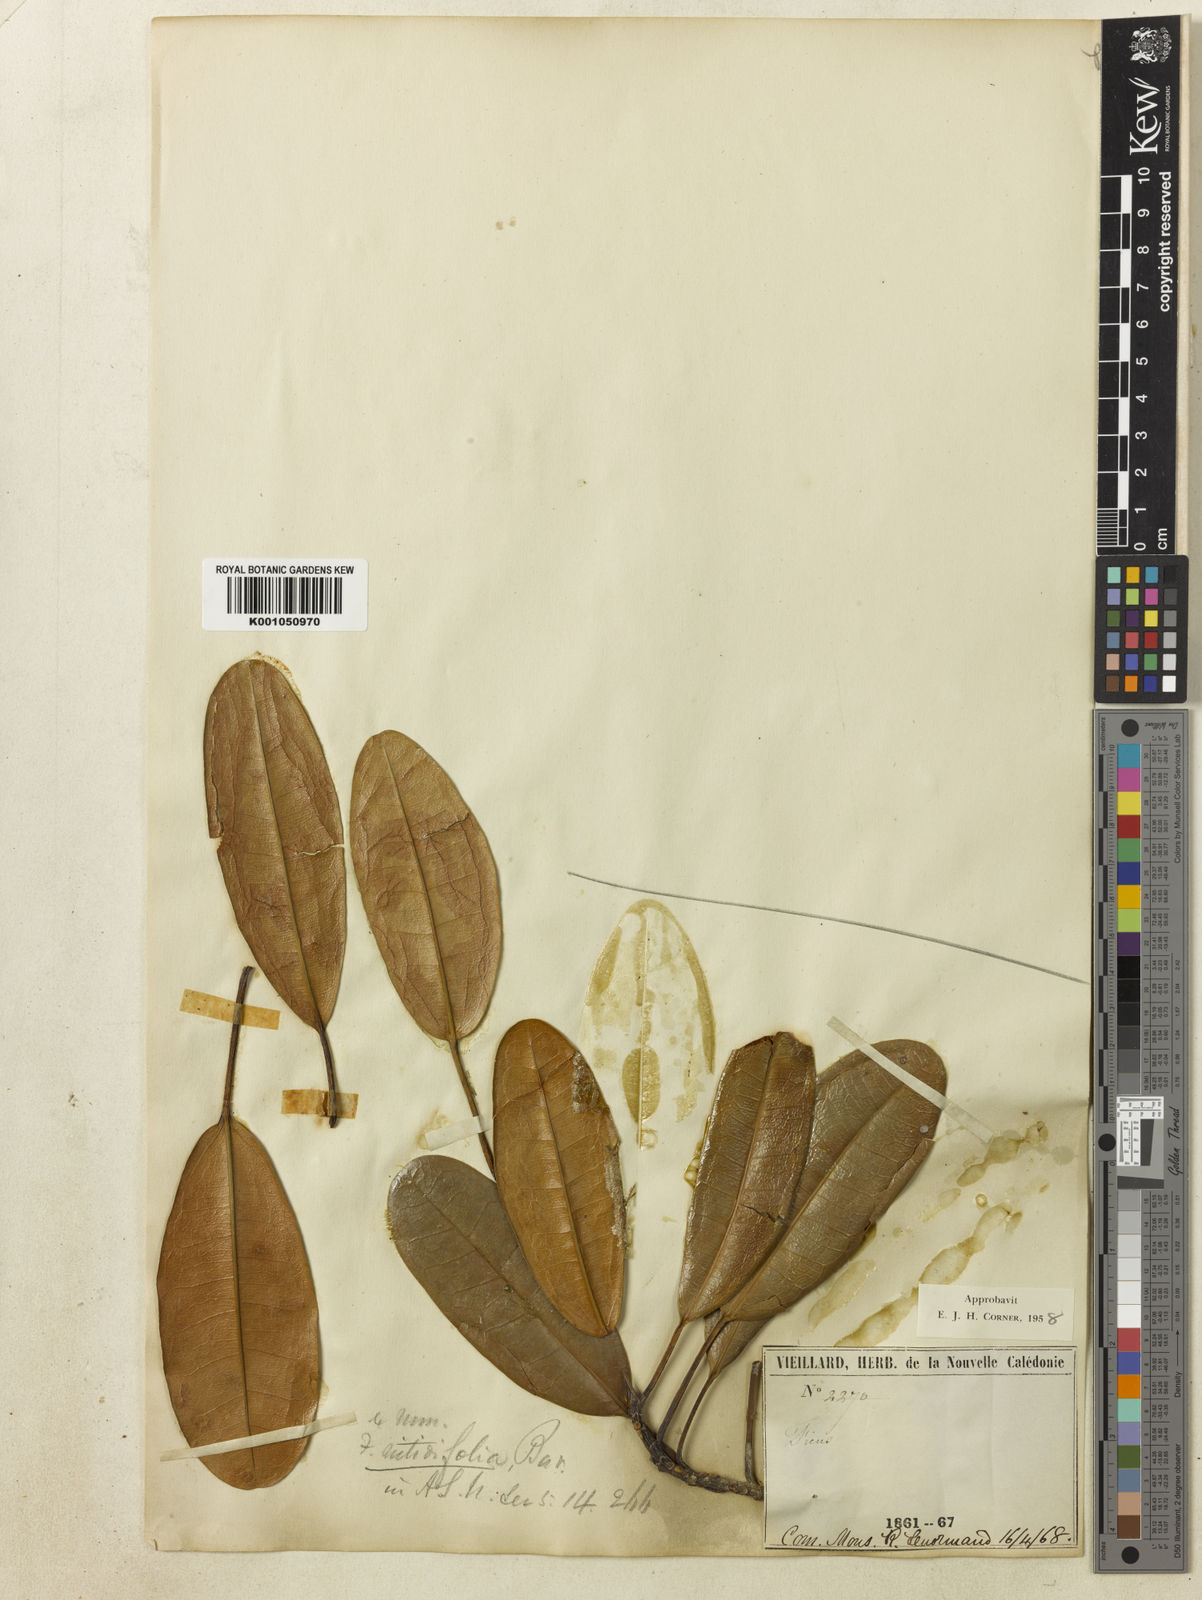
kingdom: Plantae
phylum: Tracheophyta
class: Magnoliopsida
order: Rosales
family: Moraceae
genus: Ficus
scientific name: Ficus nitidifolia
